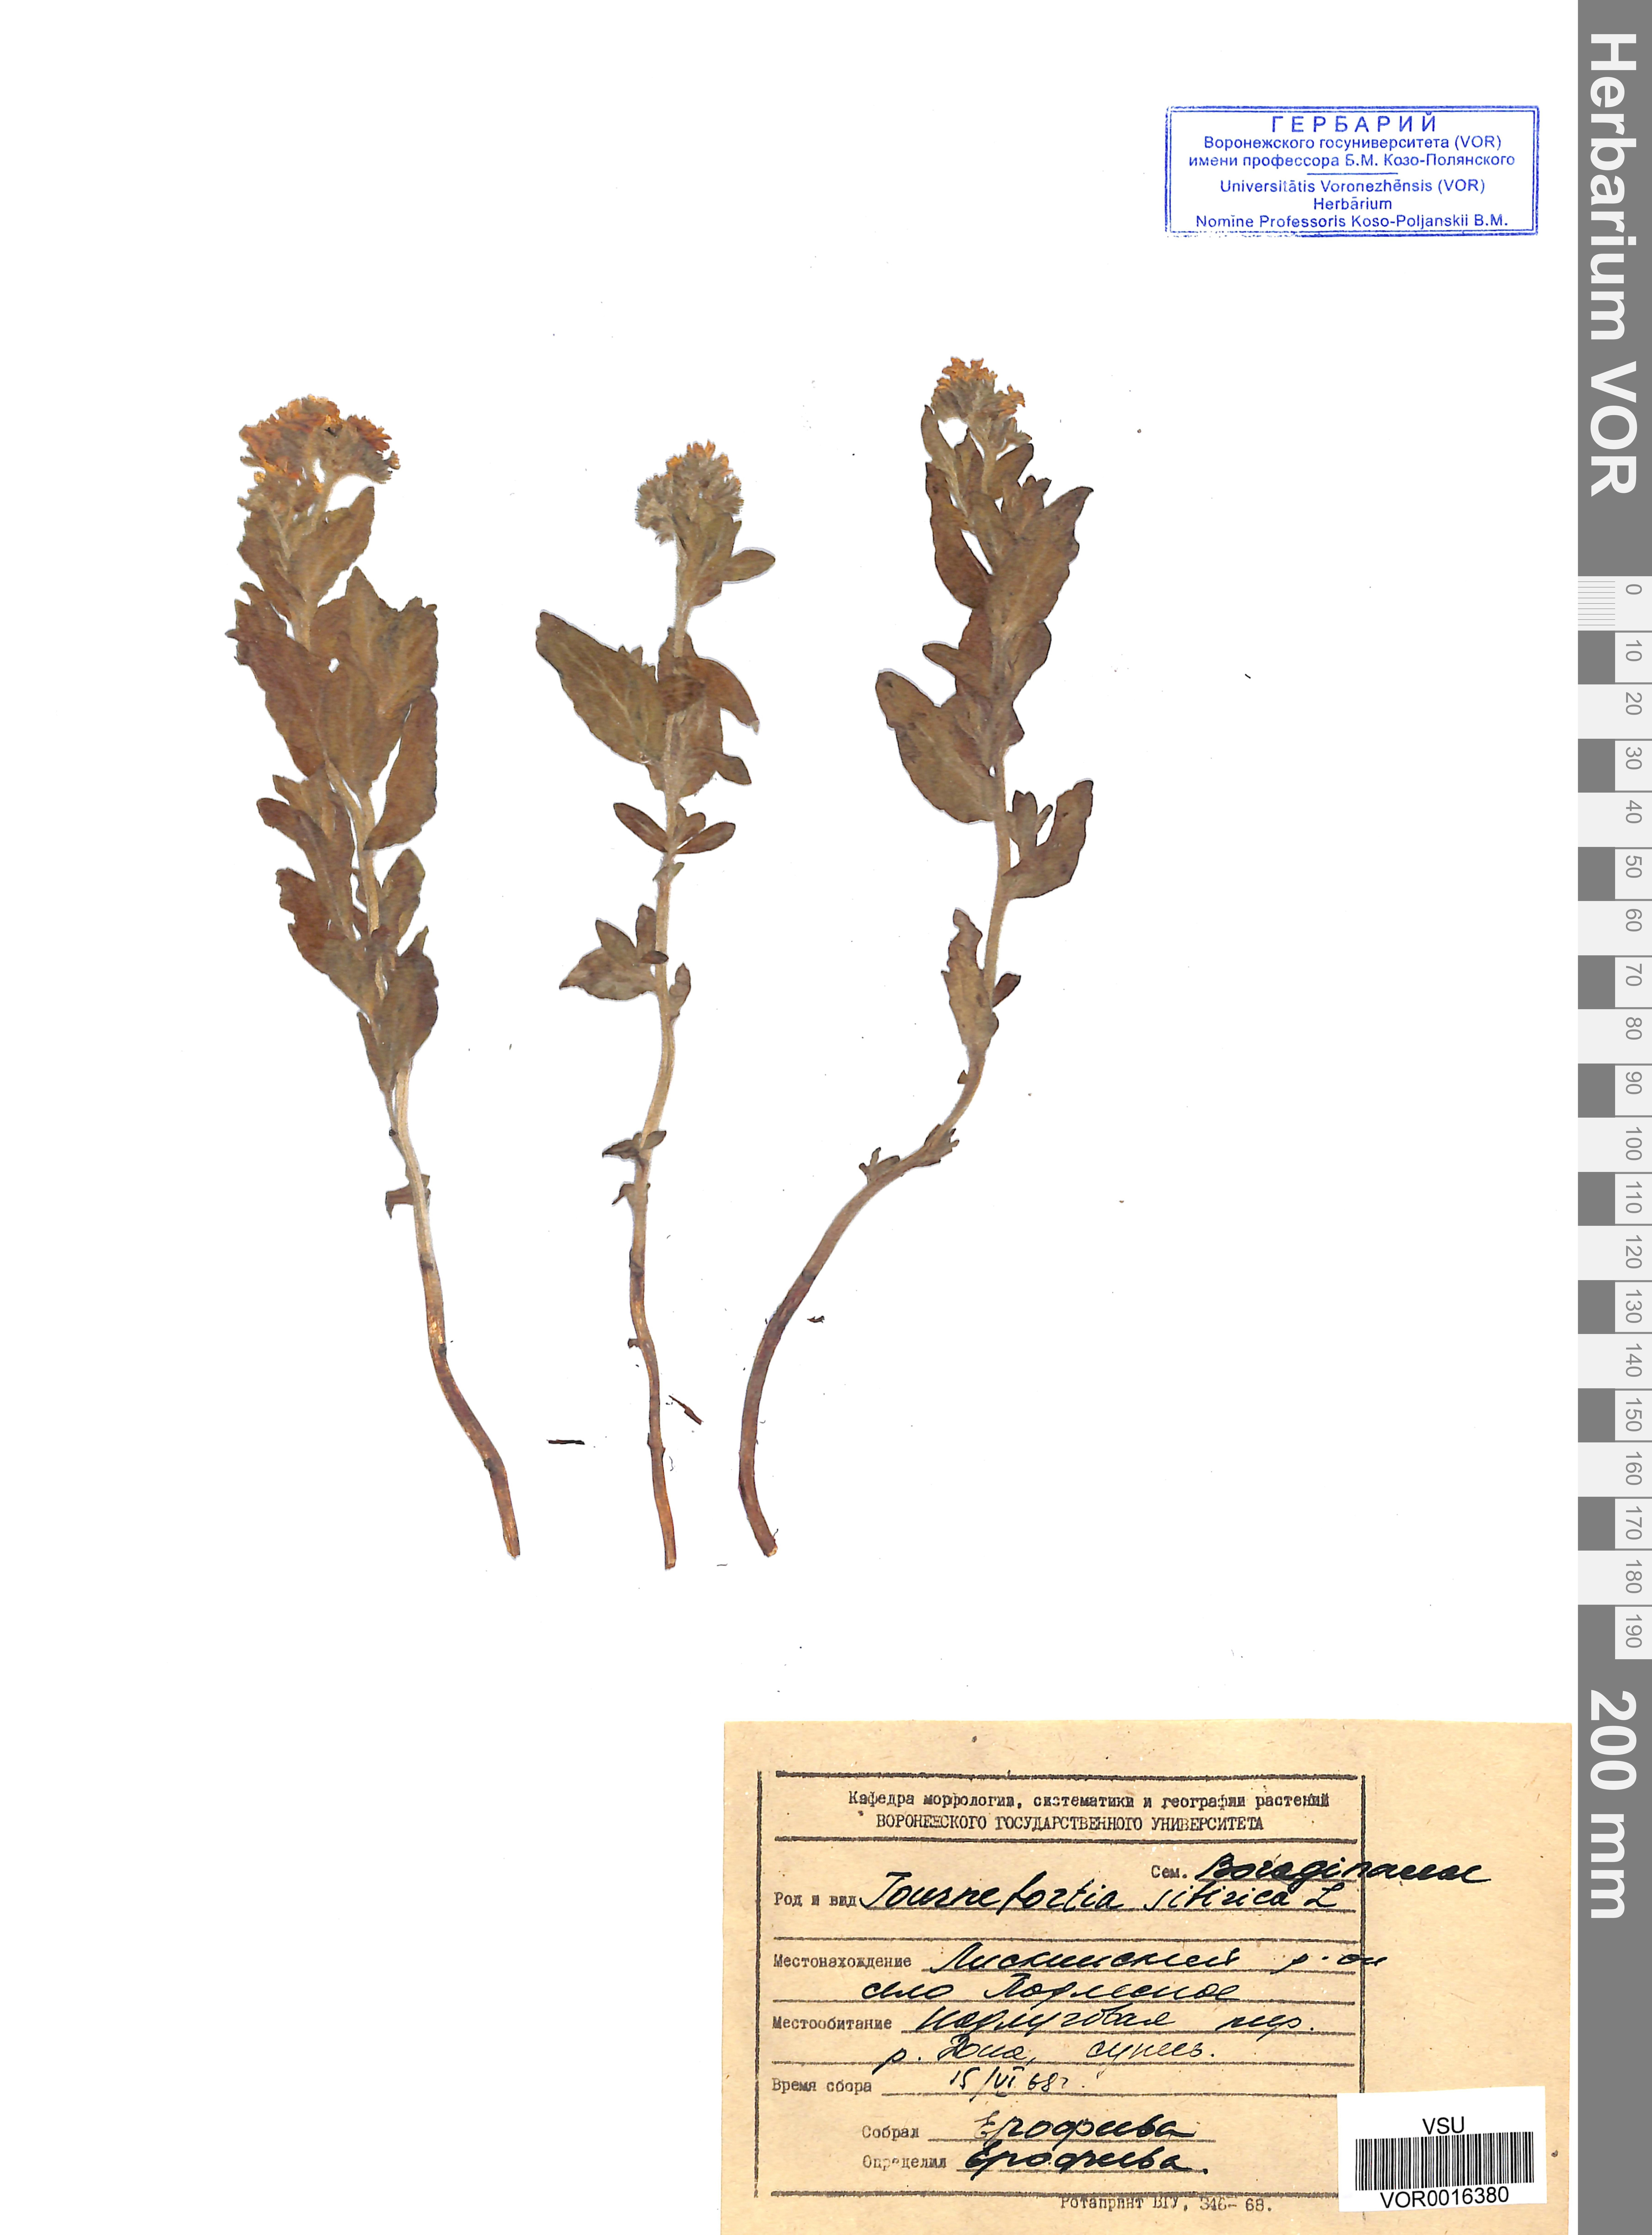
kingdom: Plantae
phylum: Tracheophyta
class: Magnoliopsida
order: Boraginales
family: Heliotropiaceae
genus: Tournefortia
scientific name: Tournefortia sibirica
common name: Siberian sea rosemary
